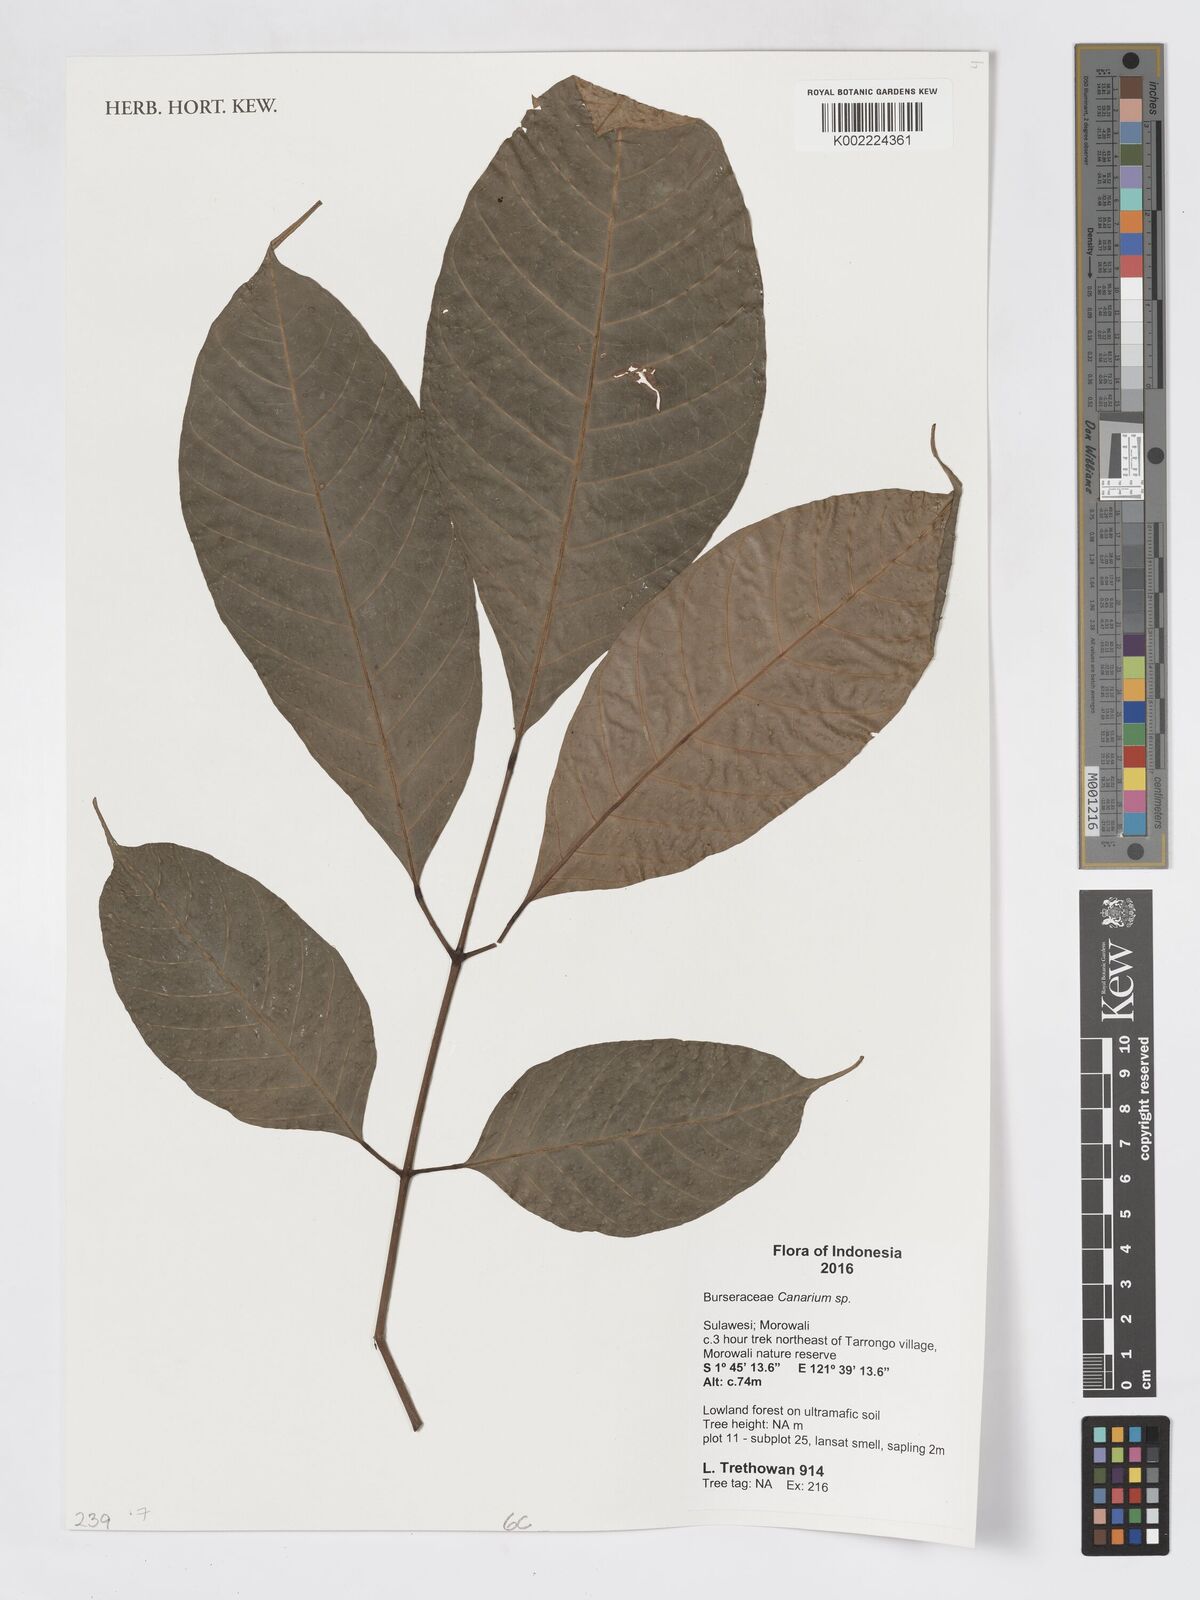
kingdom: Plantae
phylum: Tracheophyta
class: Magnoliopsida
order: Sapindales
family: Burseraceae
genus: Canarium
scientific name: Canarium
